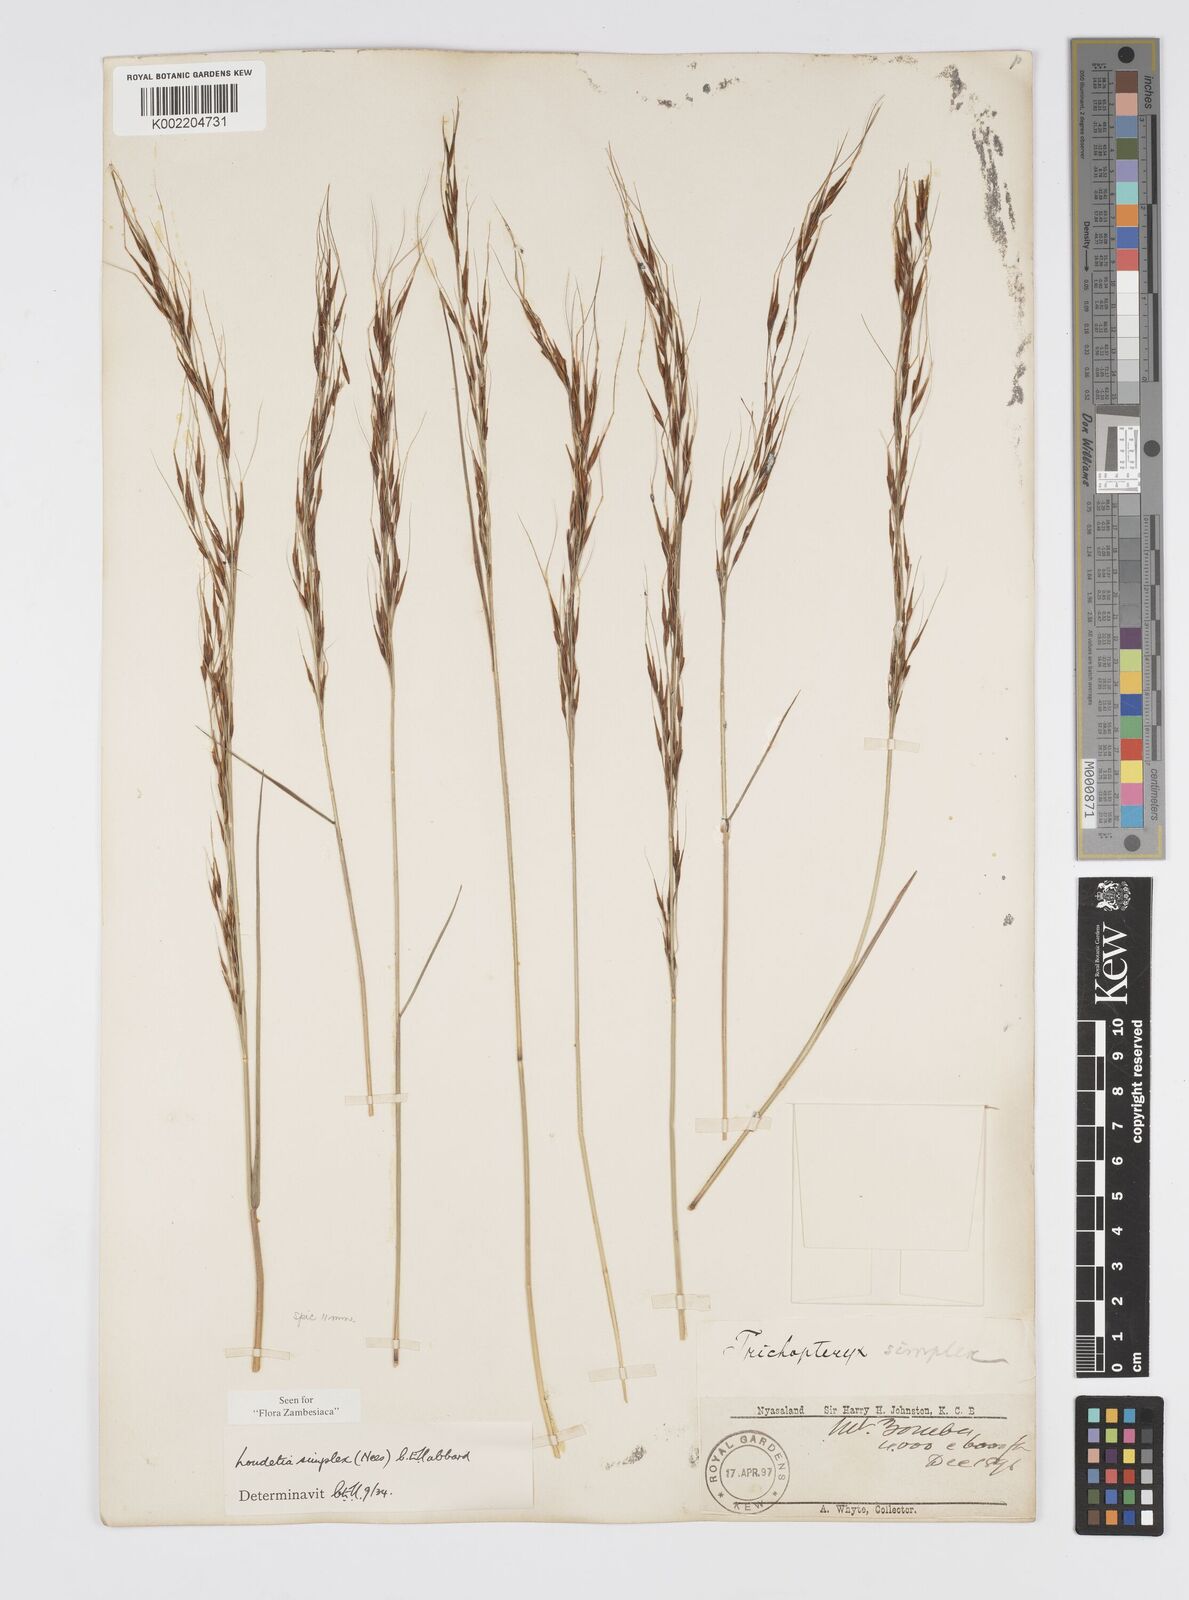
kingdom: Plantae
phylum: Tracheophyta
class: Liliopsida
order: Poales
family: Poaceae
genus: Loudetia
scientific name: Loudetia simplex
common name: Common russet grass
